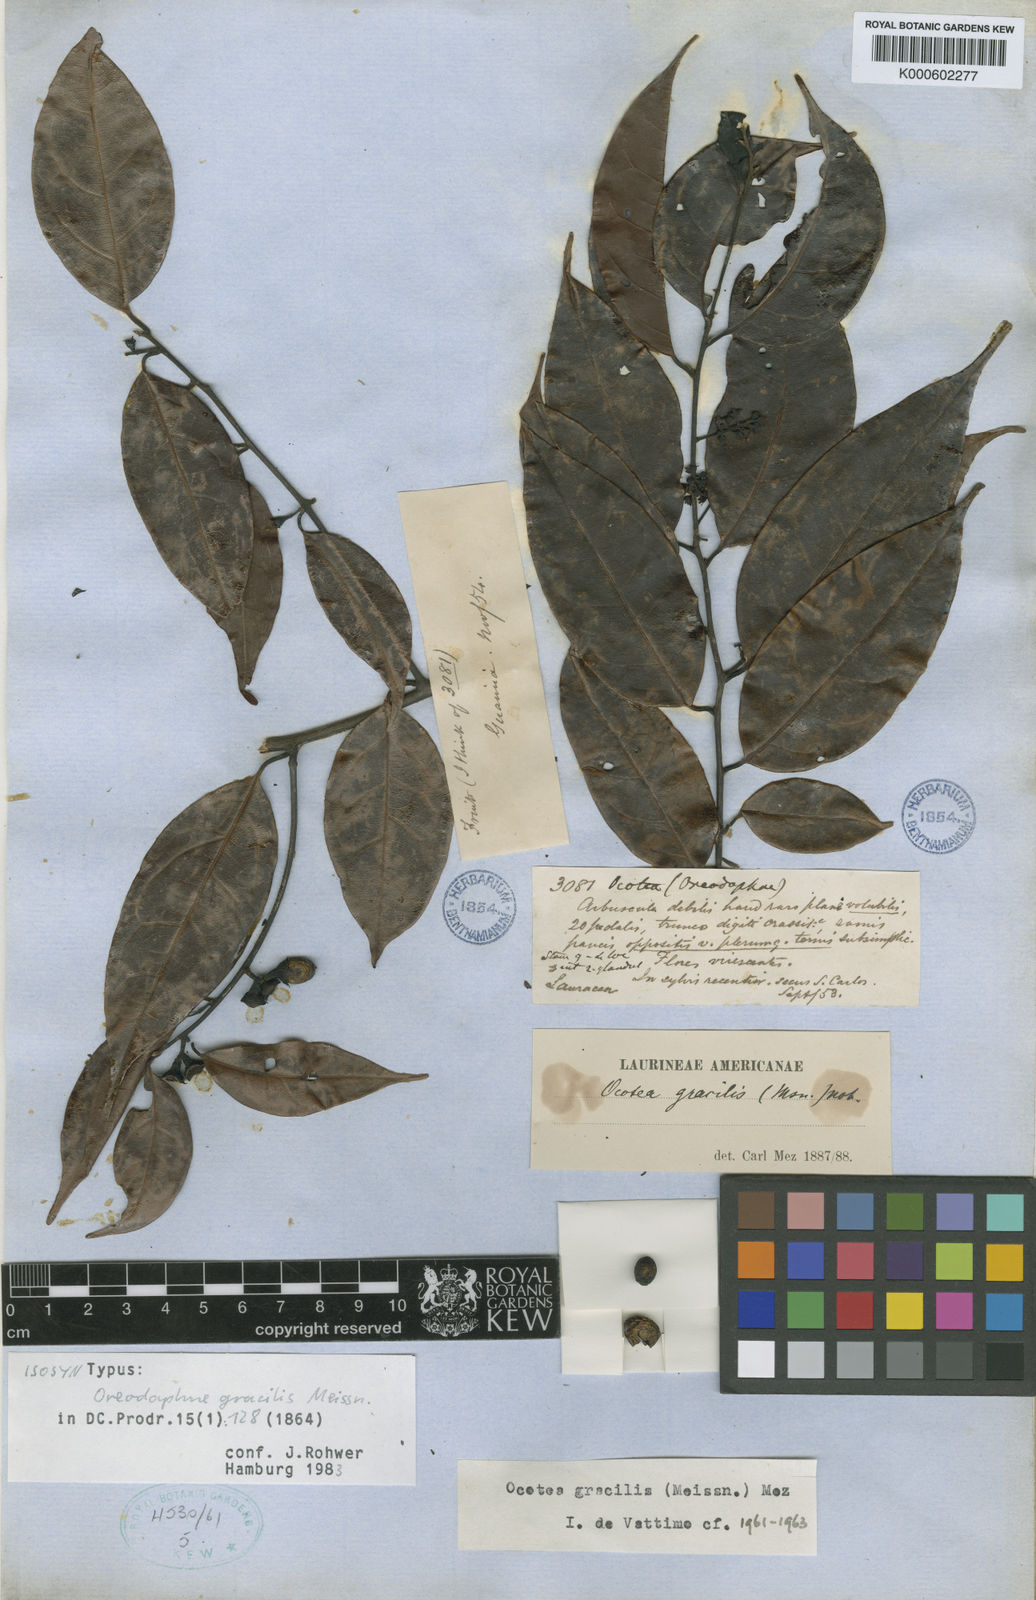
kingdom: Plantae
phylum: Tracheophyta
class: Magnoliopsida
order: Laurales
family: Lauraceae
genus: Ocotea
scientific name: Ocotea gracilis
